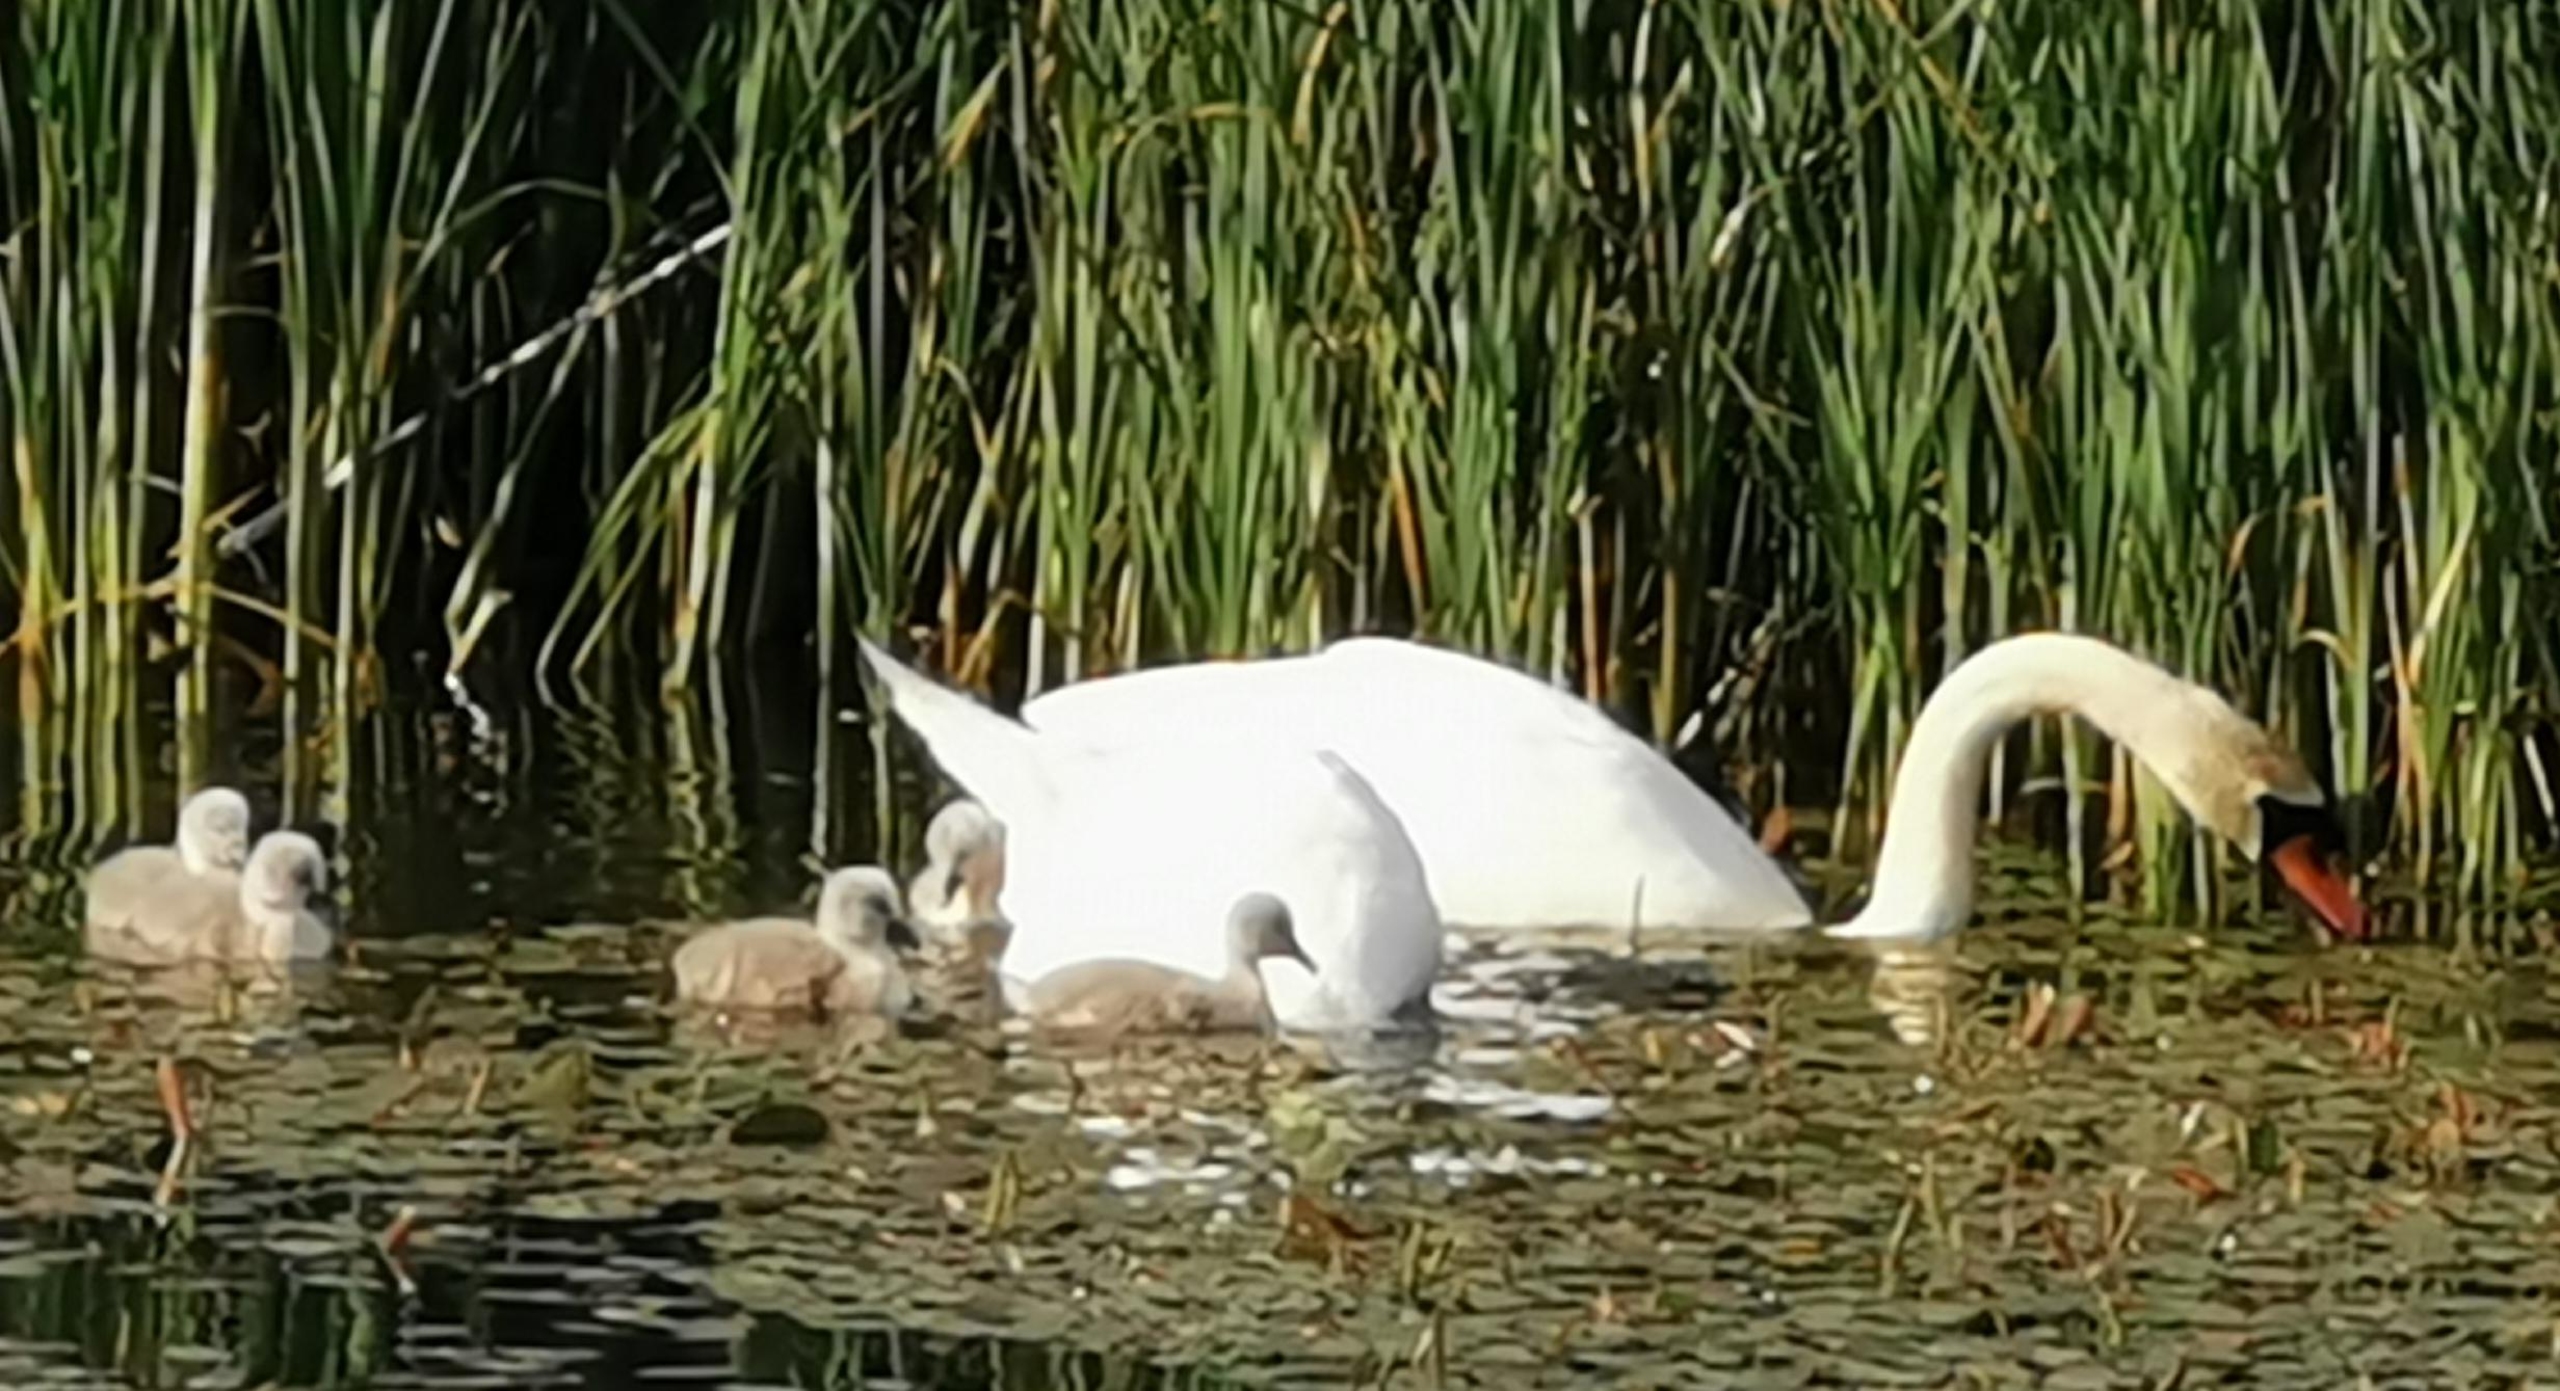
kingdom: Animalia
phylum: Chordata
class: Aves
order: Anseriformes
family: Anatidae
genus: Cygnus
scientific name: Cygnus olor
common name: Knopsvane
